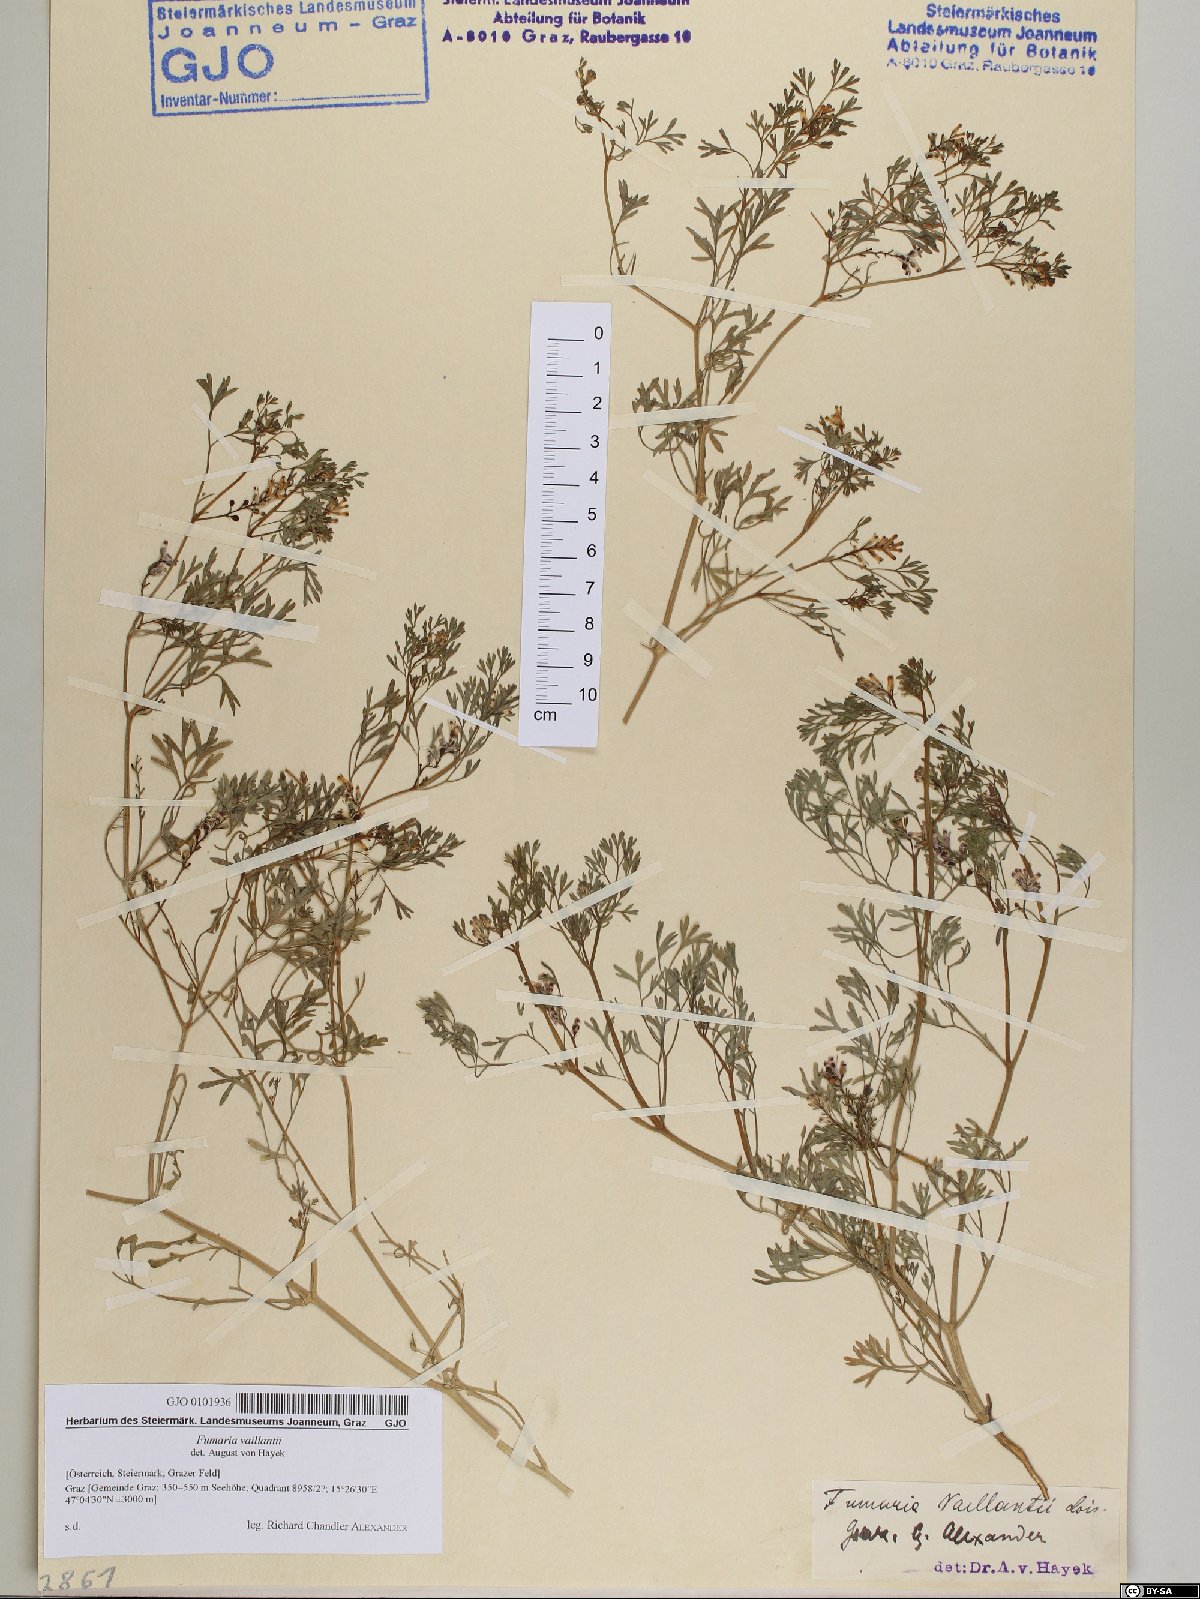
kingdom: Plantae
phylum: Tracheophyta
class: Magnoliopsida
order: Ranunculales
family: Papaveraceae
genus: Fumaria
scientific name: Fumaria vaillantii
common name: Few-flowered fumitory
